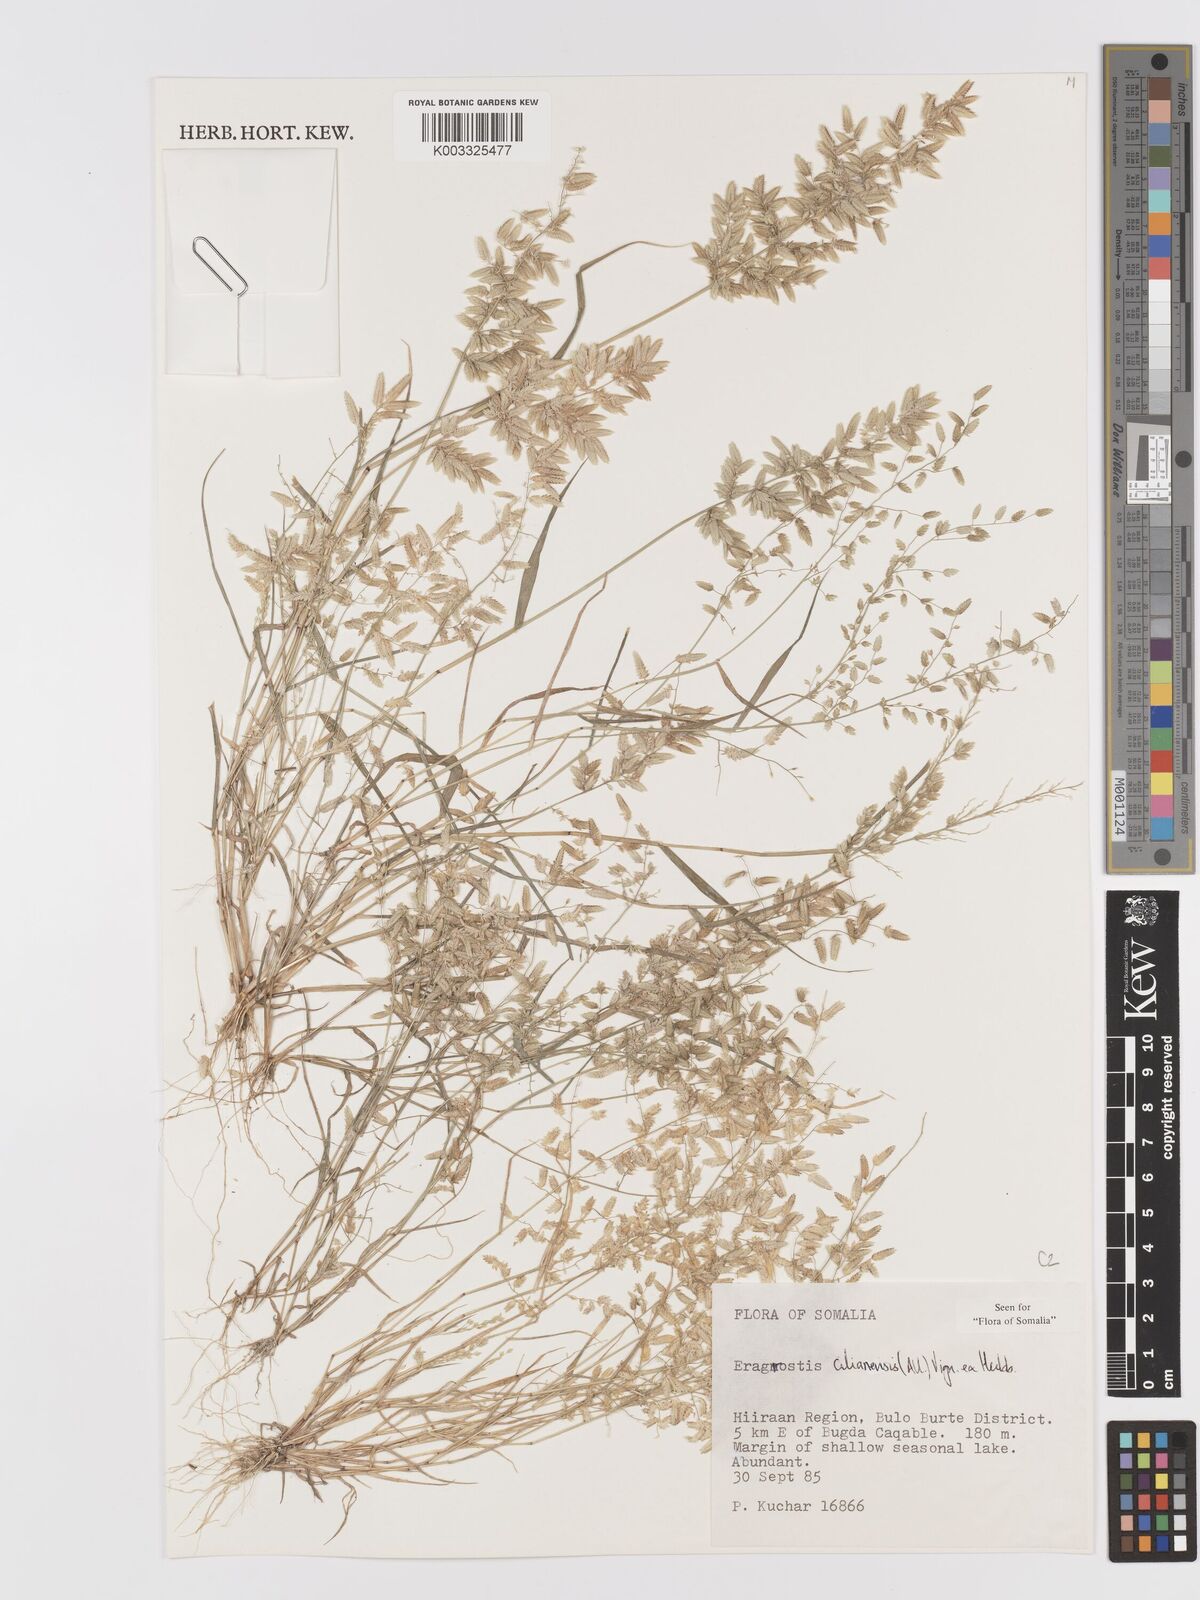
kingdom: Plantae
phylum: Tracheophyta
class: Liliopsida
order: Poales
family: Poaceae
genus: Eragrostis
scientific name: Eragrostis cilianensis
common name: Stinkgrass
